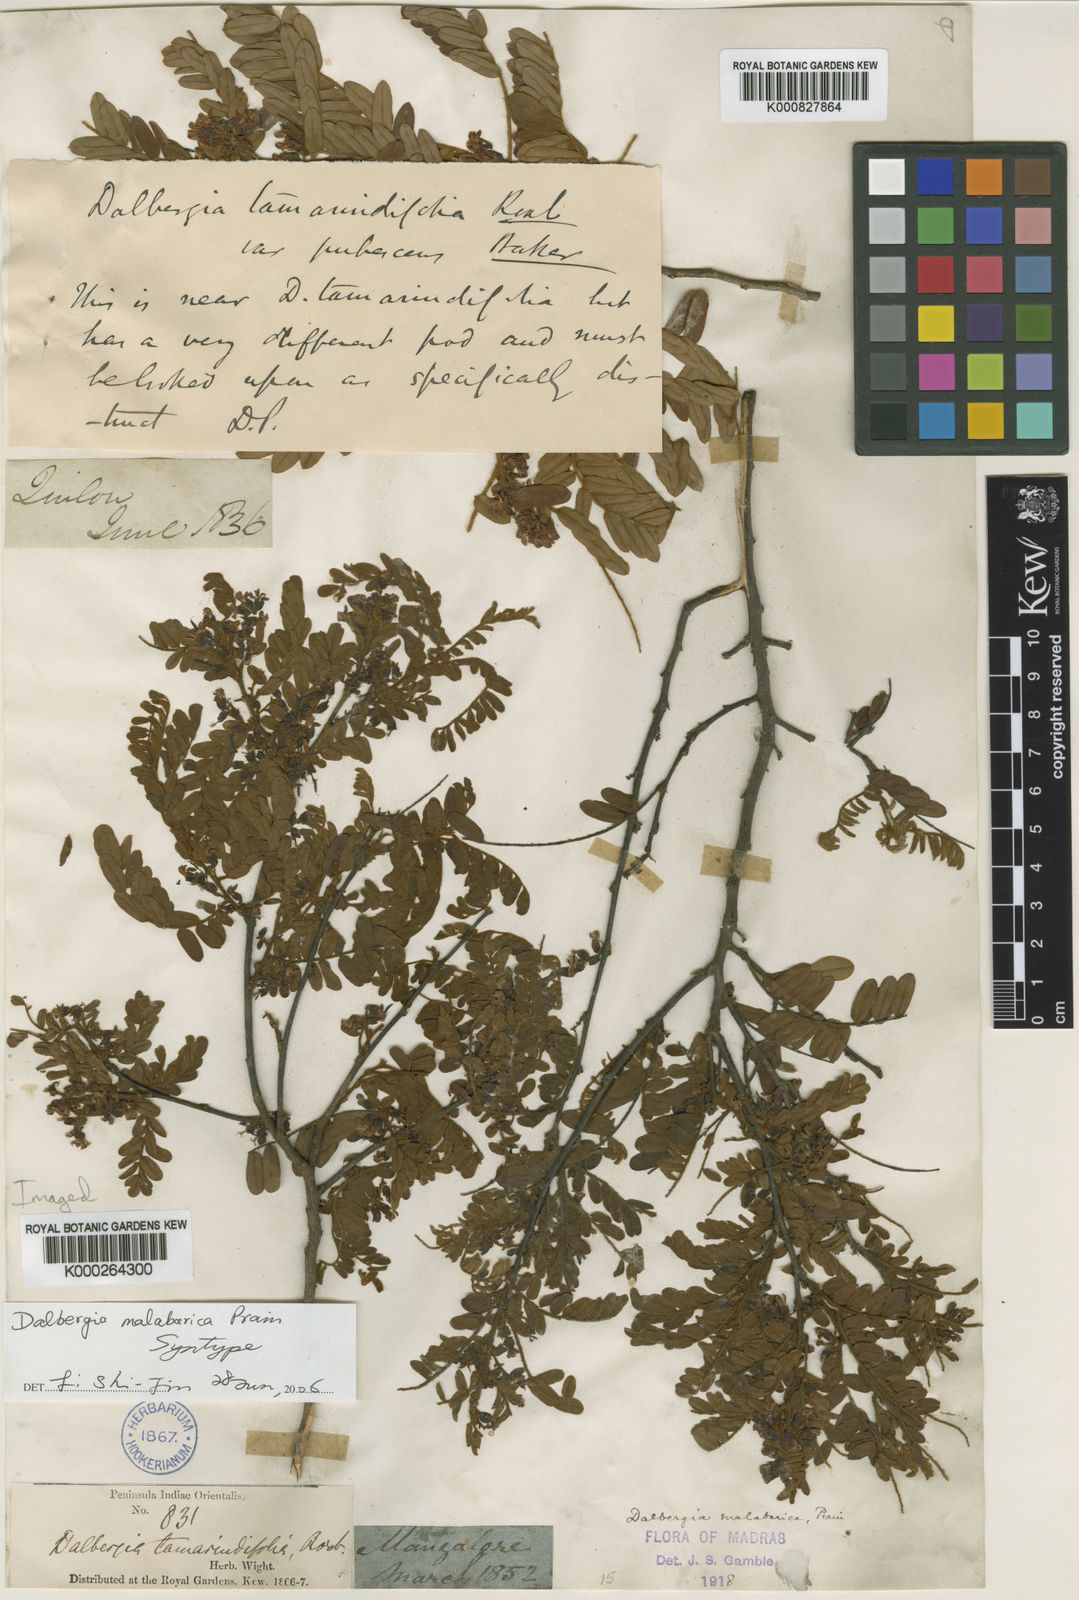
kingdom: Plantae
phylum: Tracheophyta
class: Magnoliopsida
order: Fabales
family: Fabaceae
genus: Dalbergia
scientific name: Dalbergia malabarica
